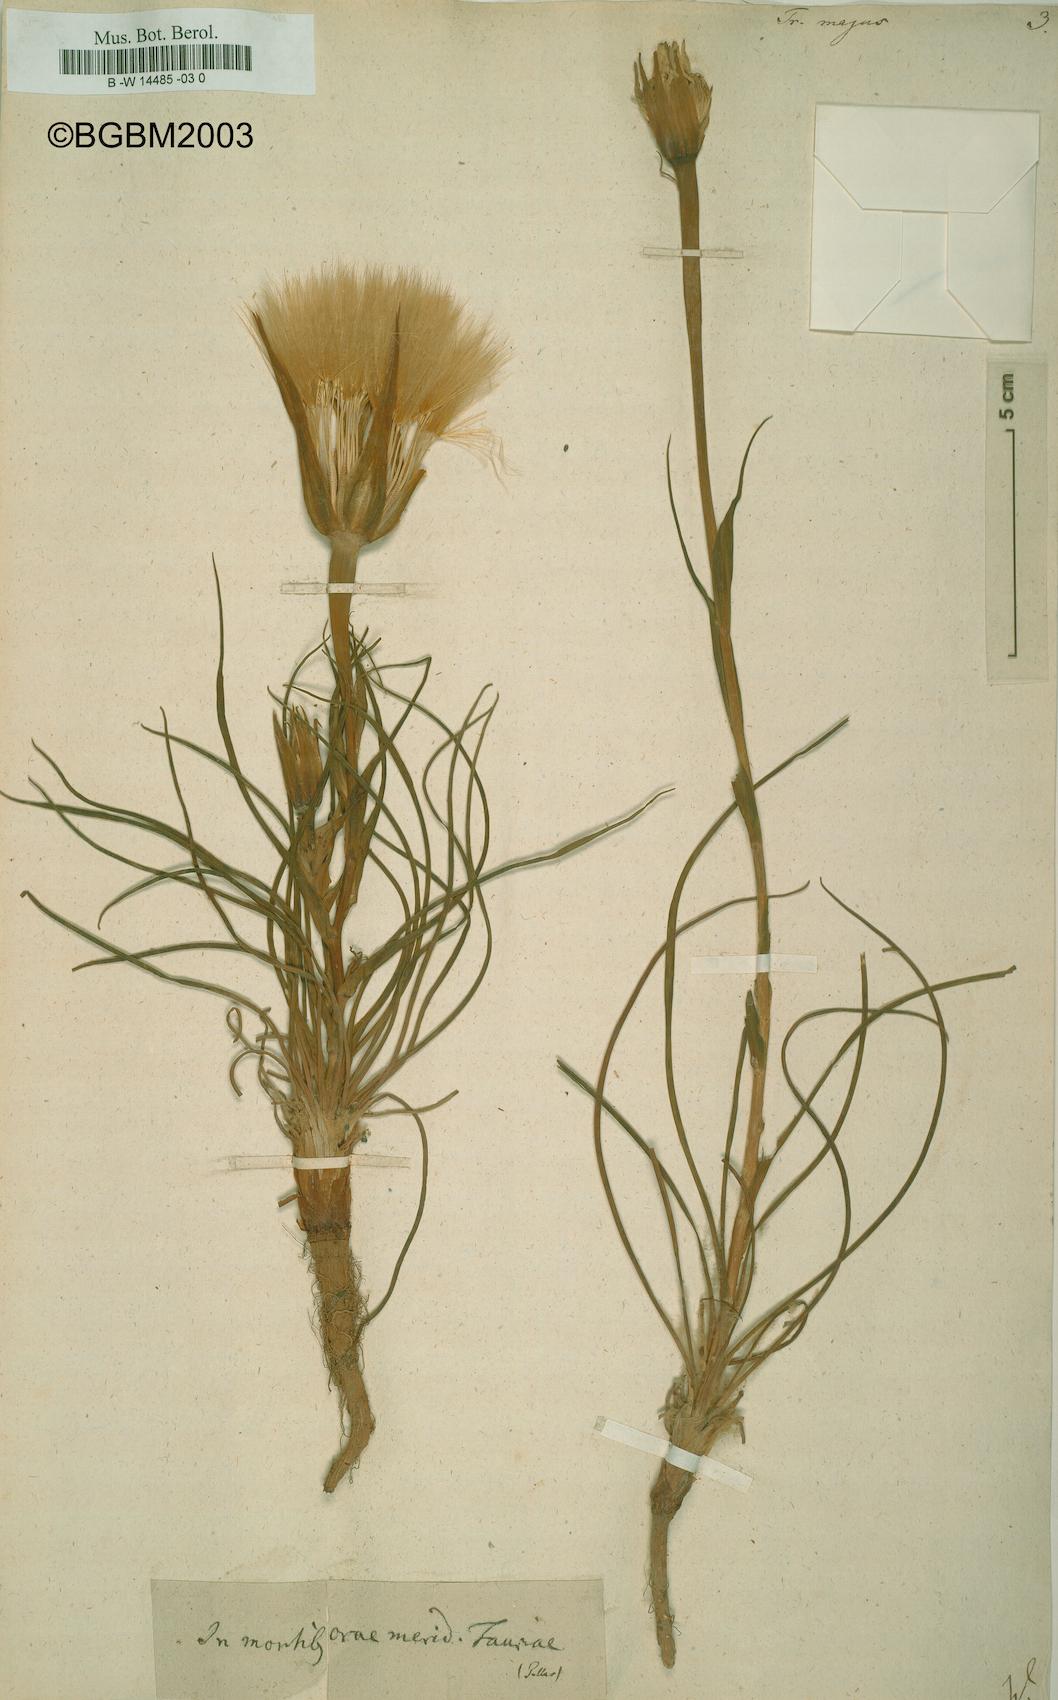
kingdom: Plantae
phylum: Tracheophyta
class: Magnoliopsida
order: Asterales
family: Asteraceae
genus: Tragopogon
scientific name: Tragopogon dubius
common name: Yellow salsify
